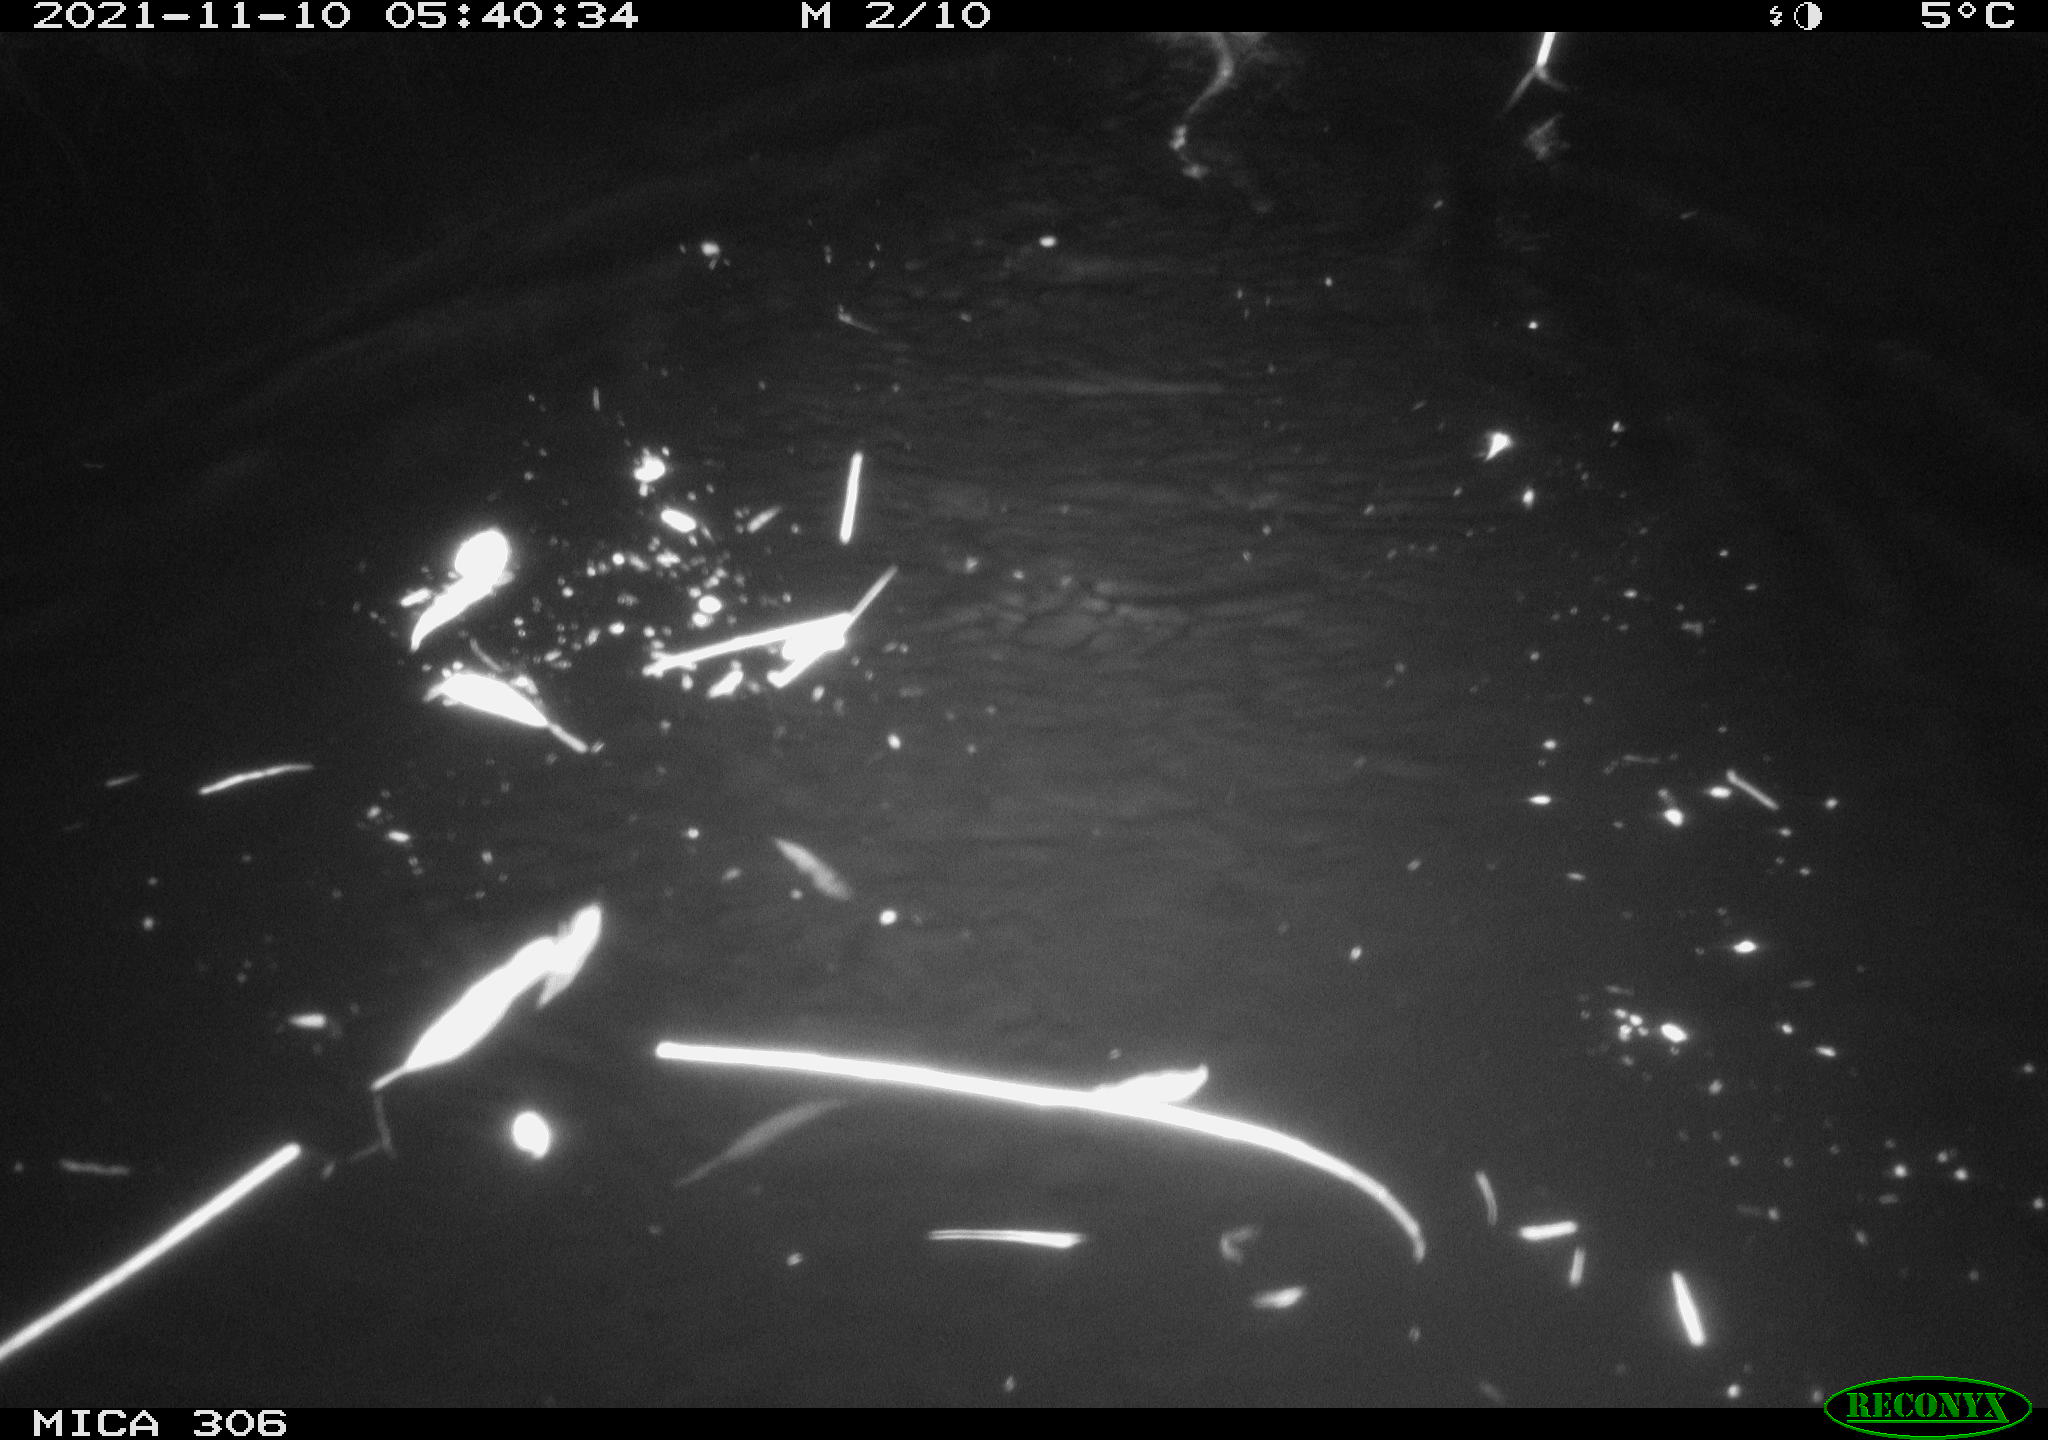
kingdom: Animalia
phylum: Chordata
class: Mammalia
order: Rodentia
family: Cricetidae
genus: Ondatra
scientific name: Ondatra zibethicus
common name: Muskrat
